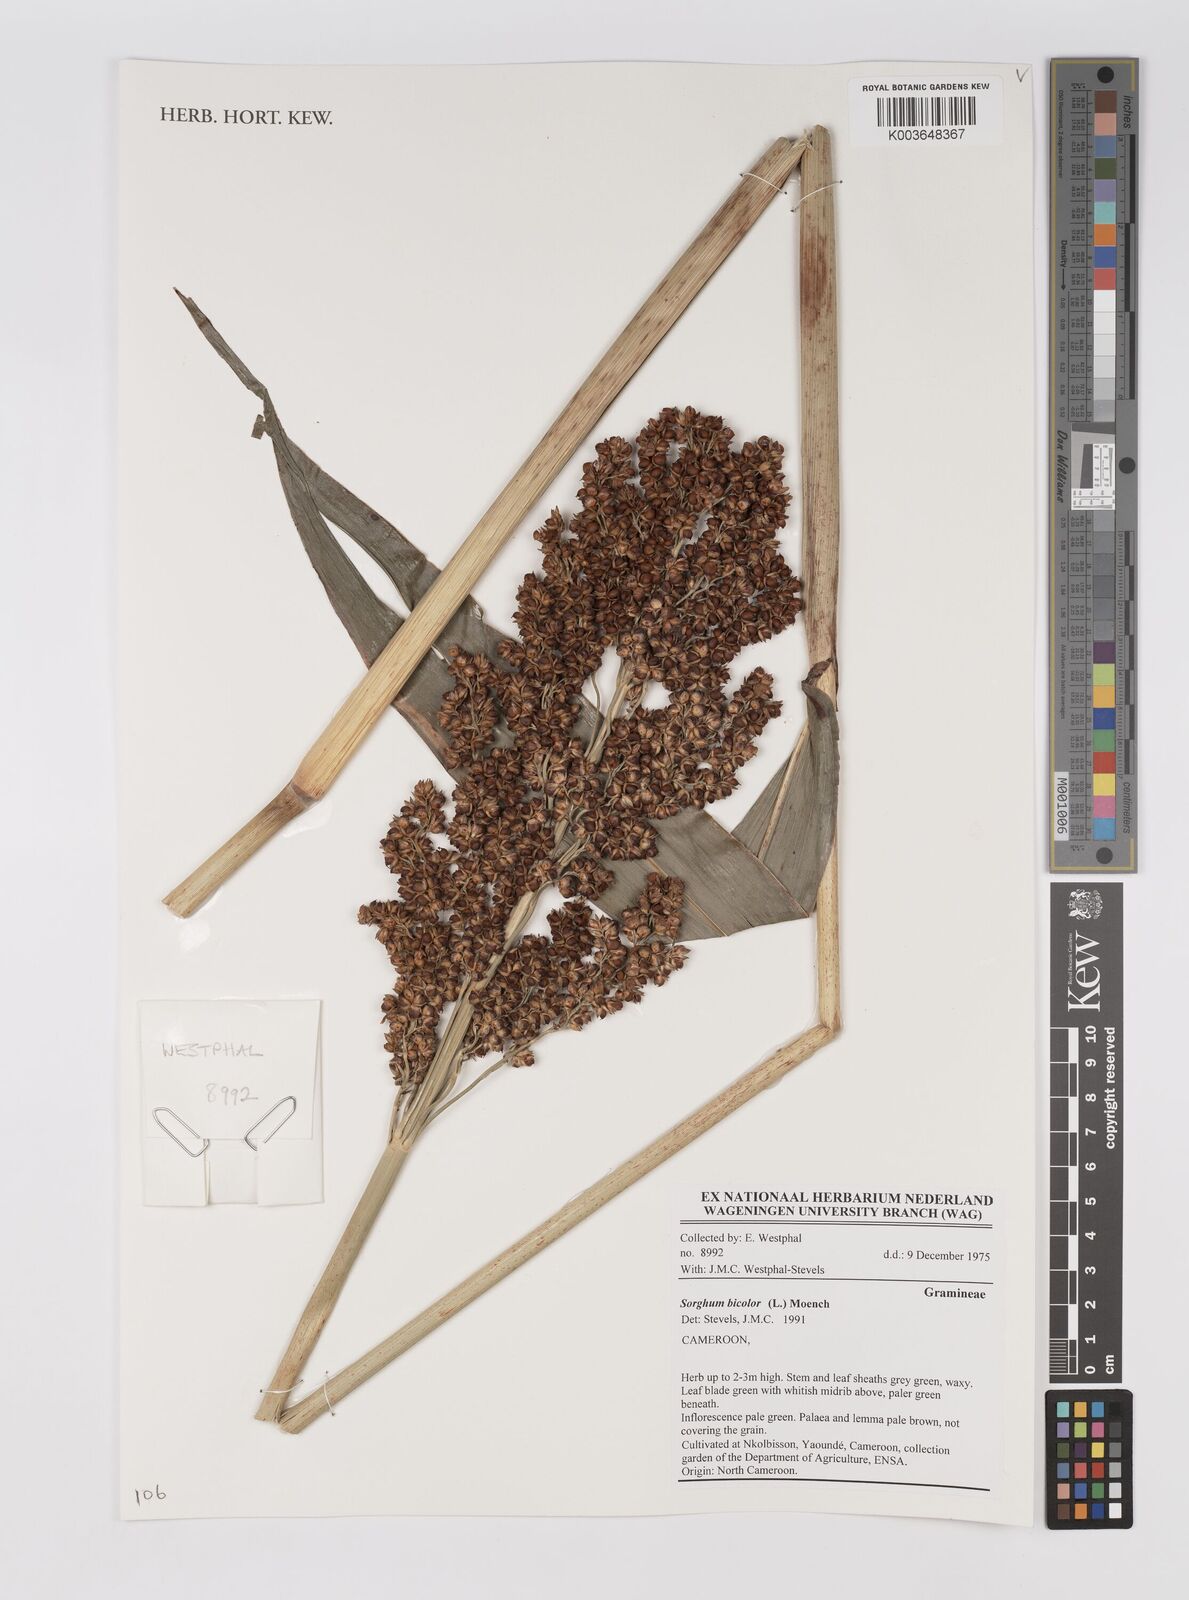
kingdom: Plantae
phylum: Tracheophyta
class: Liliopsida
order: Poales
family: Poaceae
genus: Sorghum
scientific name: Sorghum bicolor
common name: Sorghum
